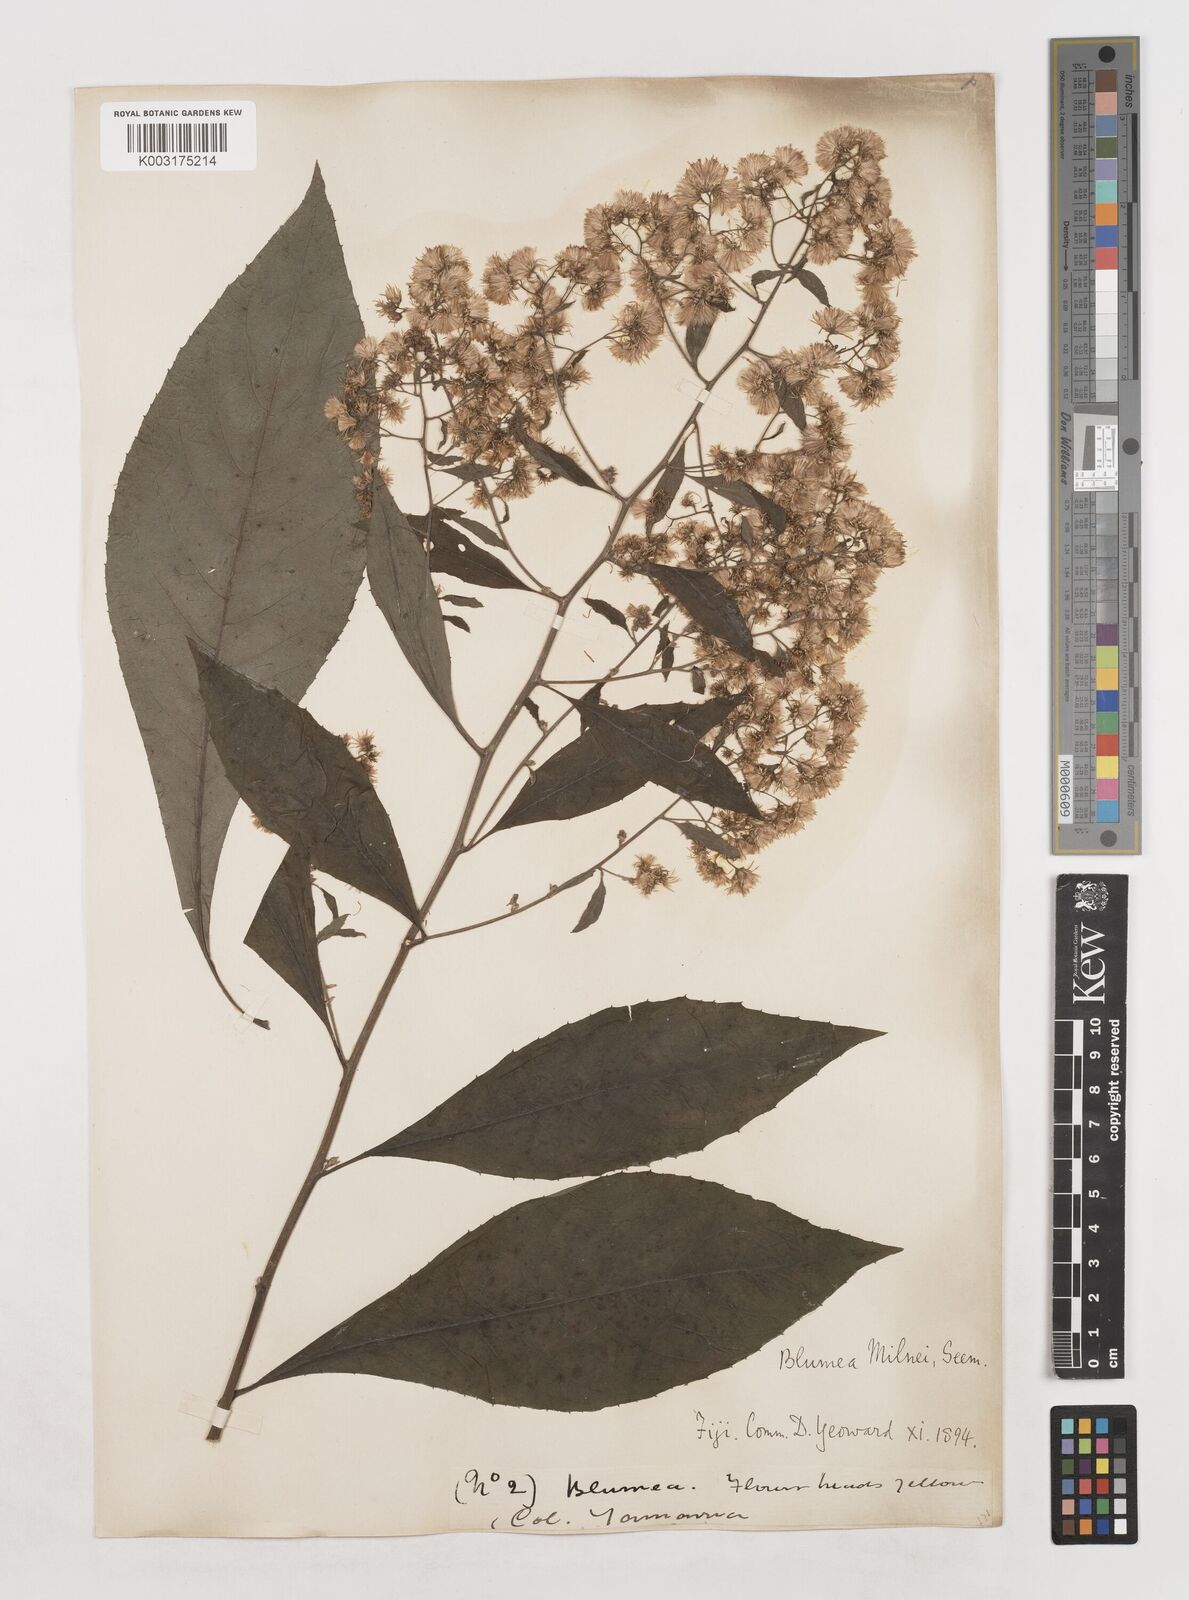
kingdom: Plantae
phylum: Tracheophyta
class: Magnoliopsida
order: Asterales
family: Asteraceae
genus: Blumea
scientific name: Blumea milnei
